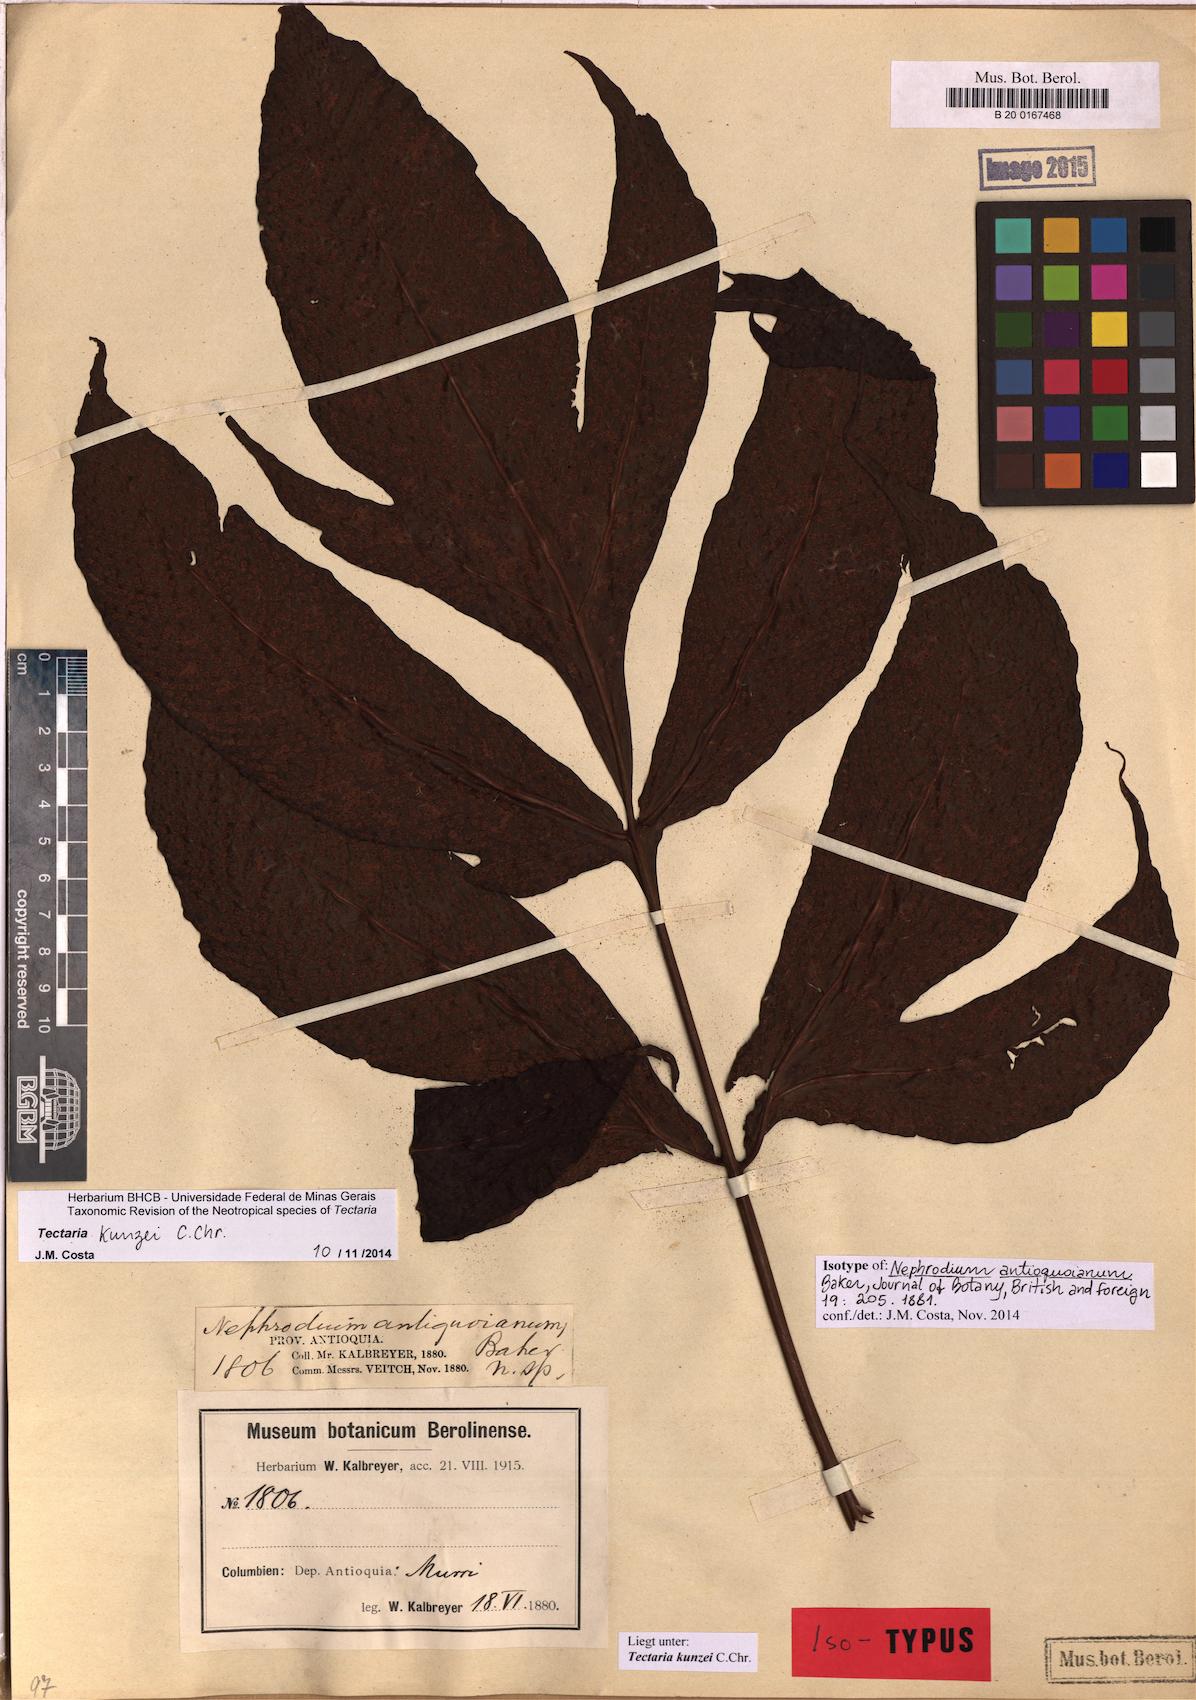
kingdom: Plantae
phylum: Tracheophyta
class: Polypodiopsida
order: Polypodiales
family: Tectariaceae
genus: Tectaria
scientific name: Tectaria kunzei
